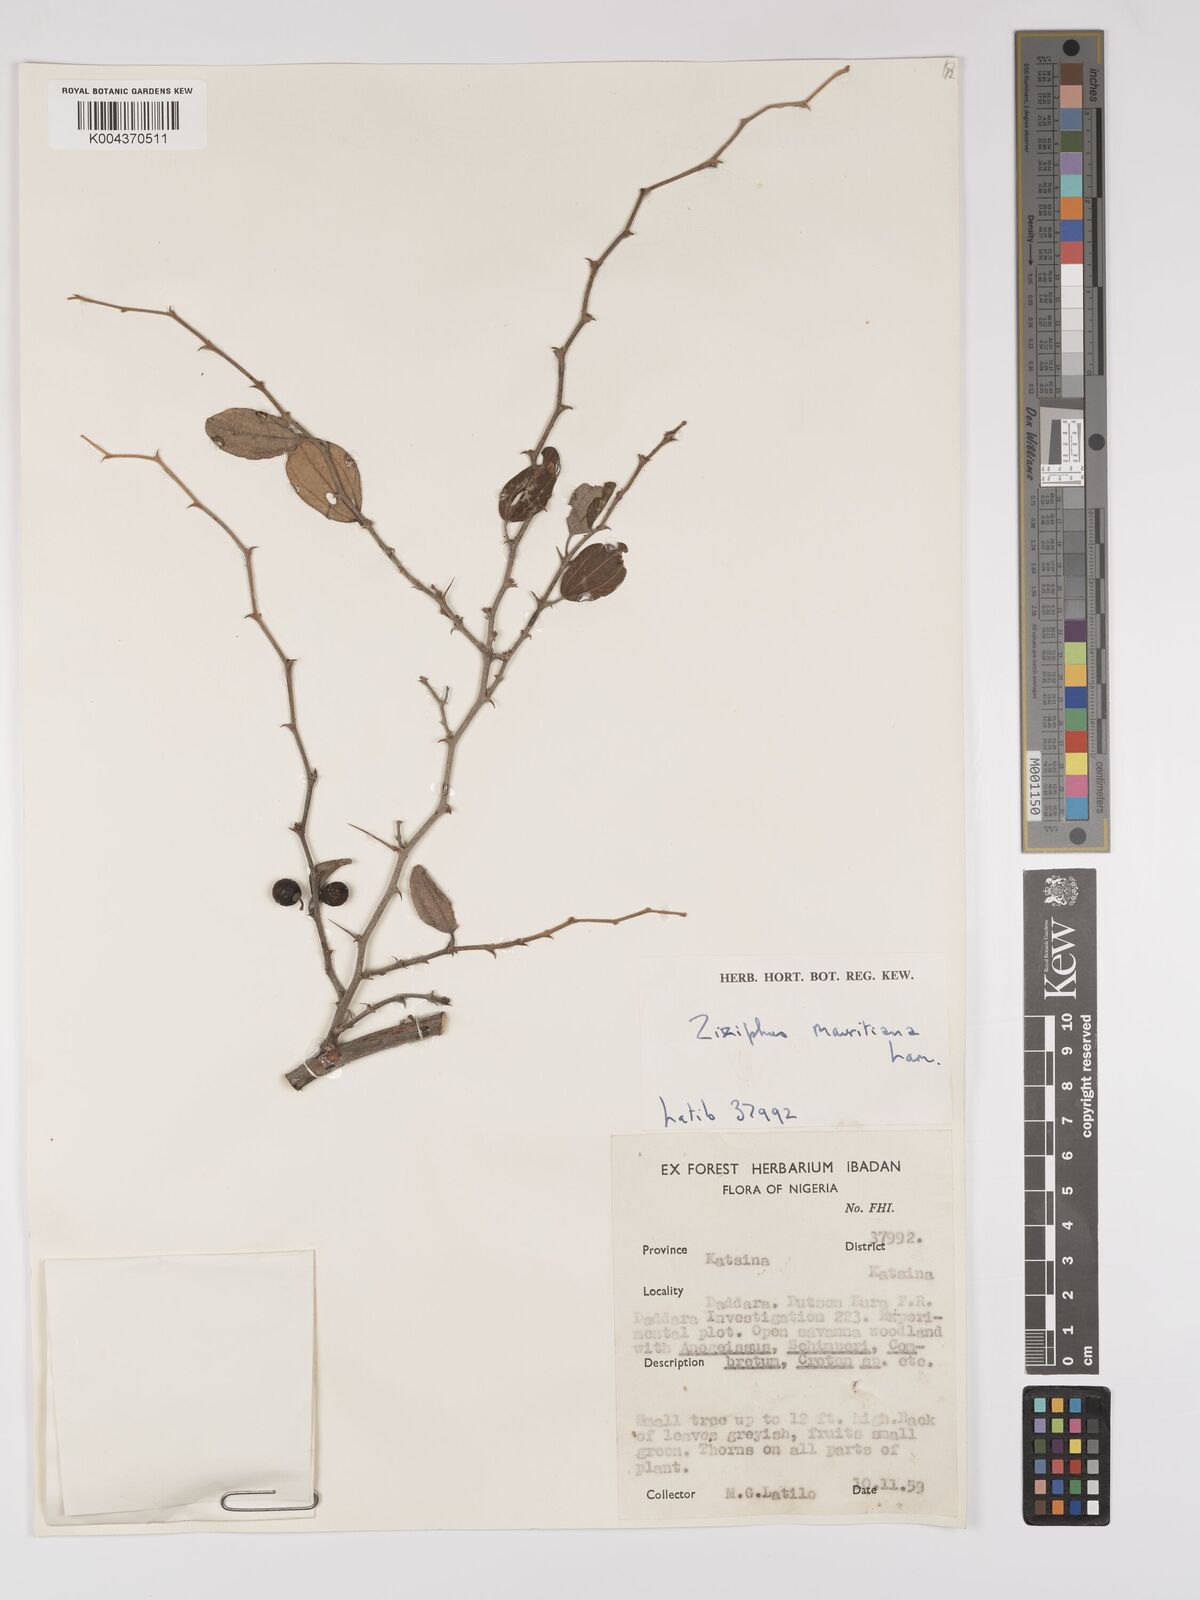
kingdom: Plantae
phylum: Tracheophyta
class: Magnoliopsida
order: Rosales
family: Rhamnaceae
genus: Ziziphus
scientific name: Ziziphus mauritiana
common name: Indian jujube
